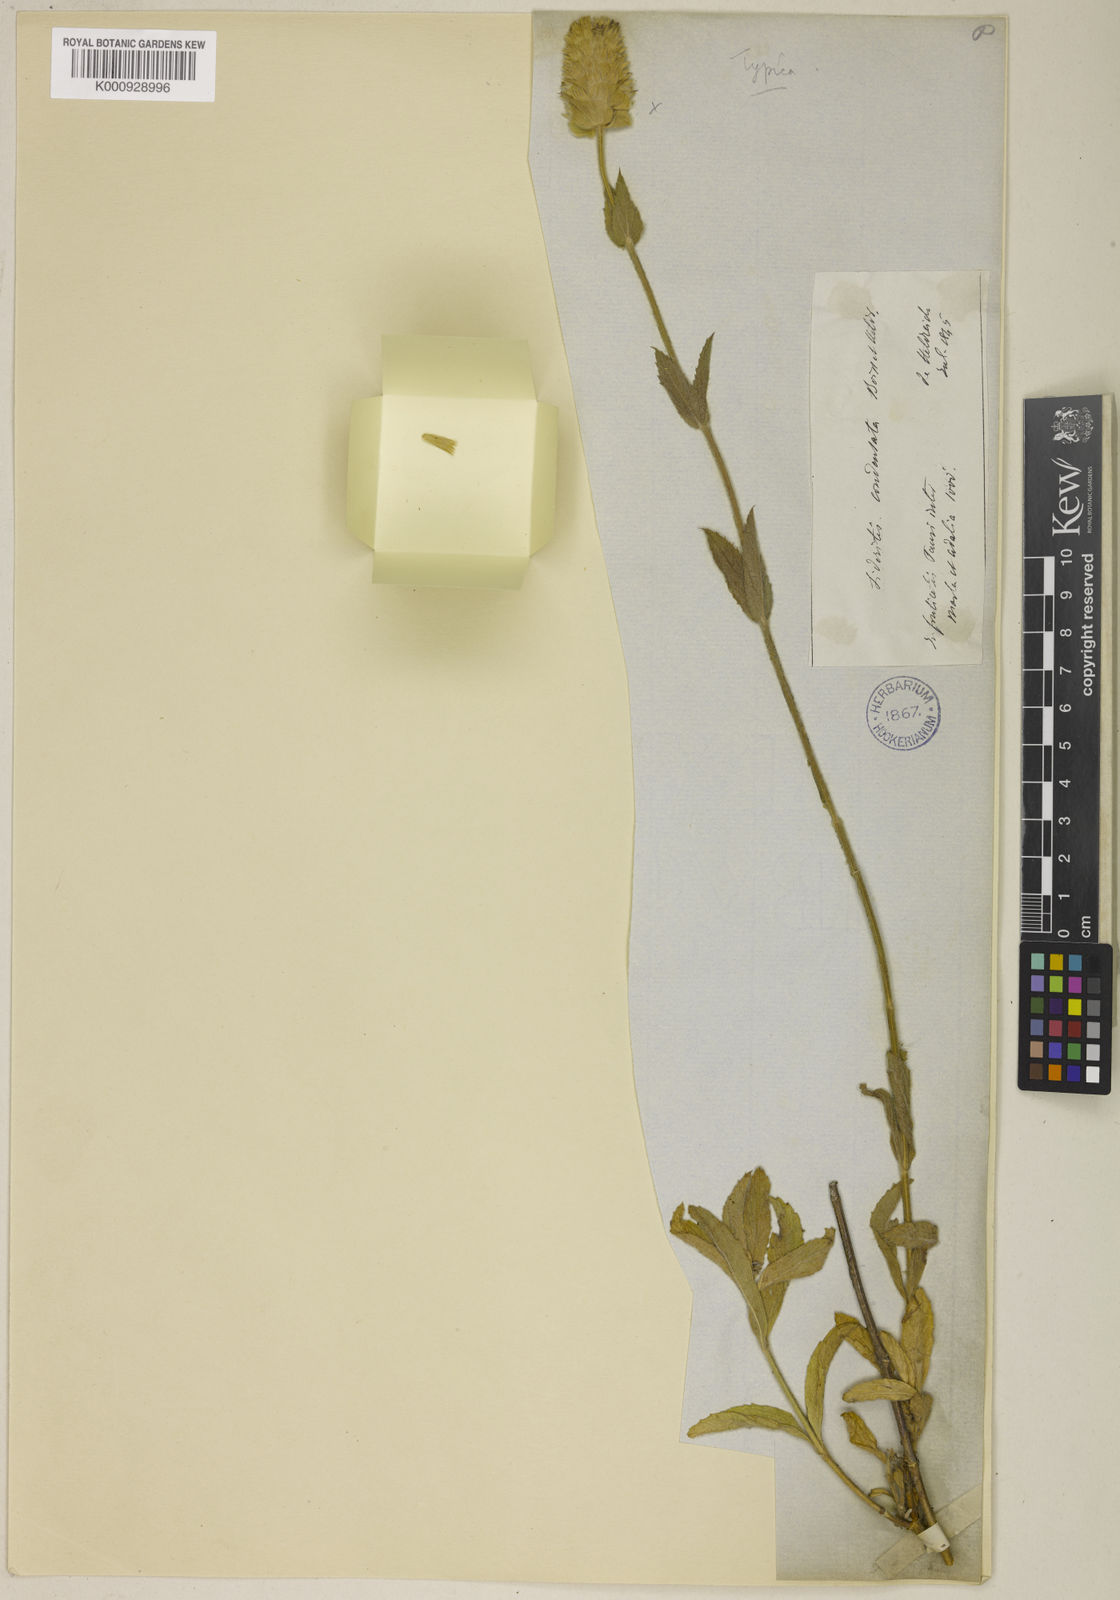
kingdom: Plantae
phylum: Tracheophyta
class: Magnoliopsida
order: Lamiales
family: Lamiaceae
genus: Sideritis
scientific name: Sideritis condensata
